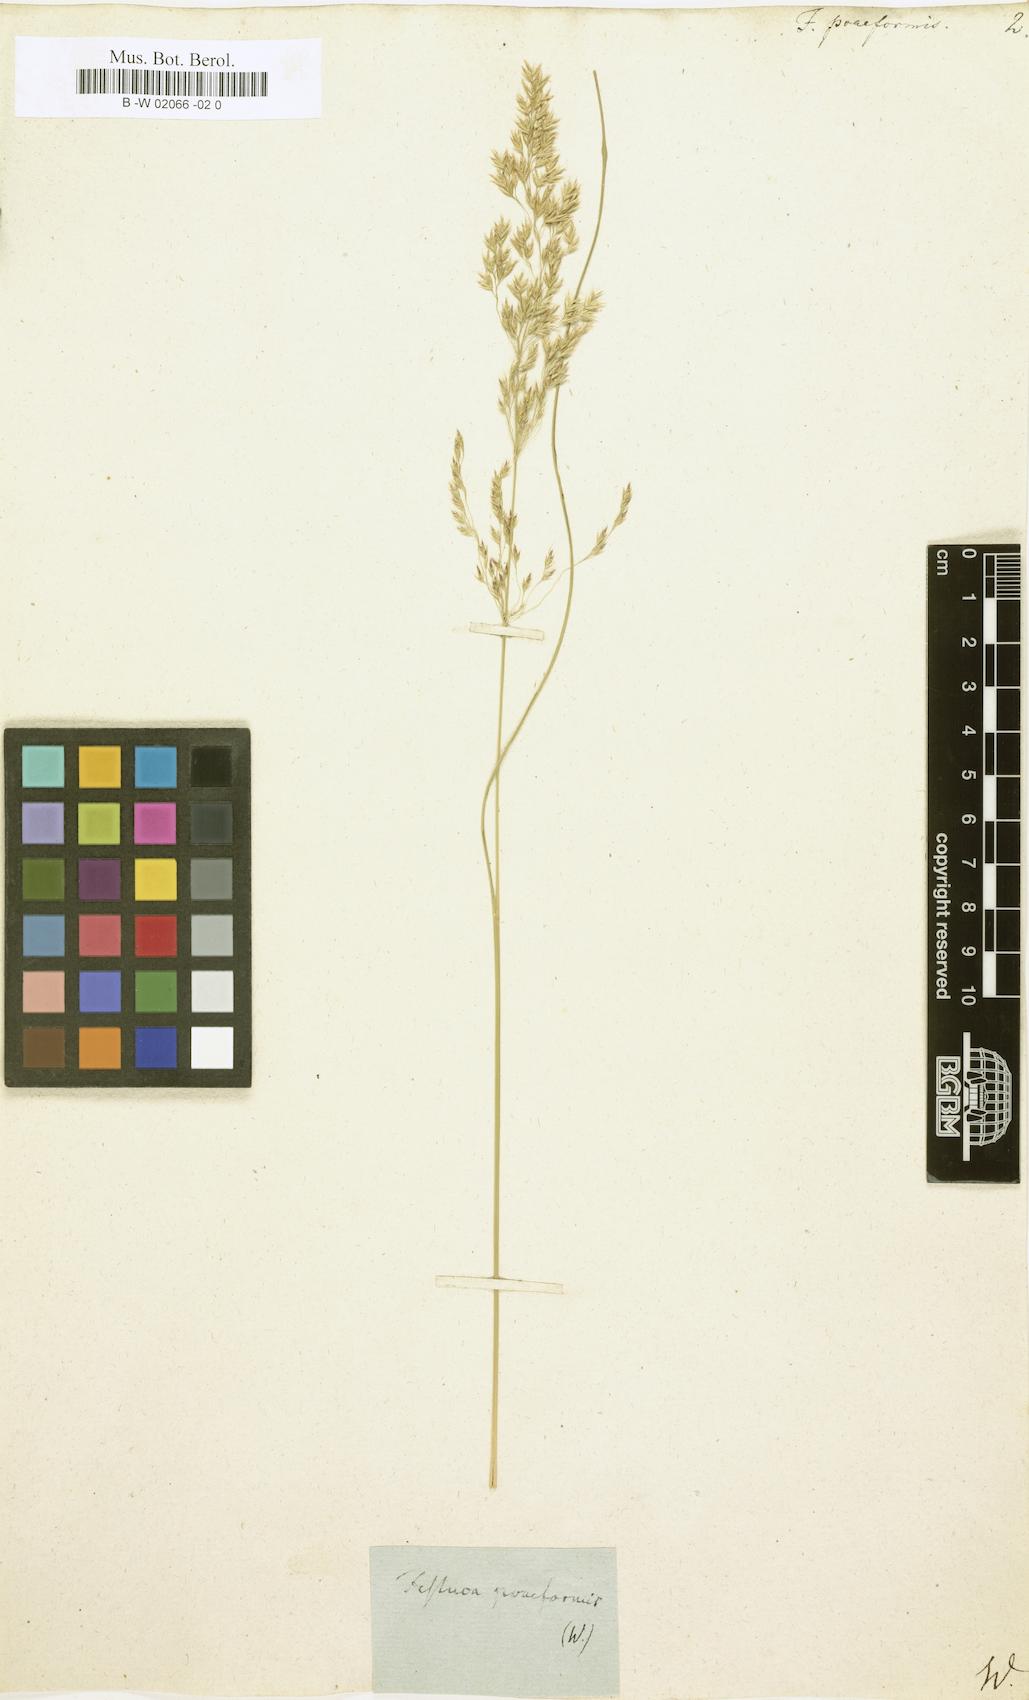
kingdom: Plantae
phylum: Tracheophyta
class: Liliopsida
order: Poales
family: Poaceae
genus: Bellardiochloa
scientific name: Bellardiochloa variegata
